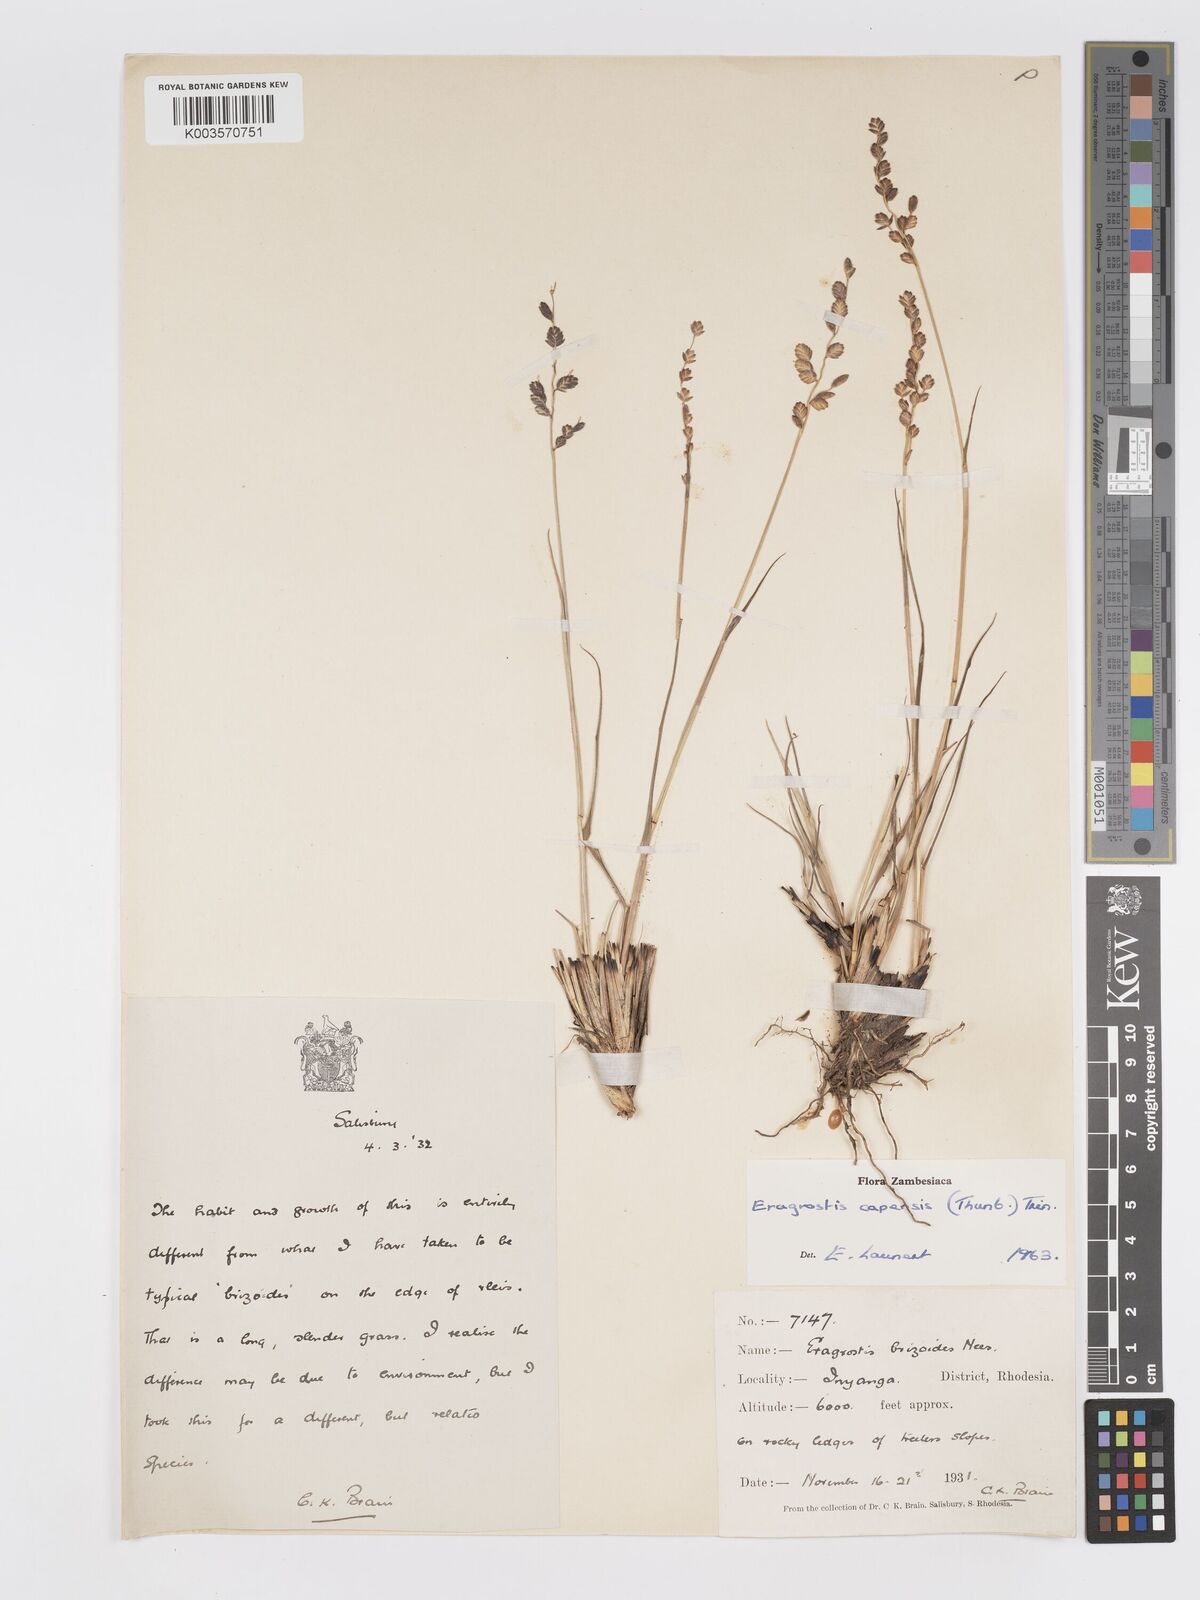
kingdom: Plantae
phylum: Tracheophyta
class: Liliopsida
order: Poales
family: Poaceae
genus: Eragrostis
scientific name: Eragrostis capensis
